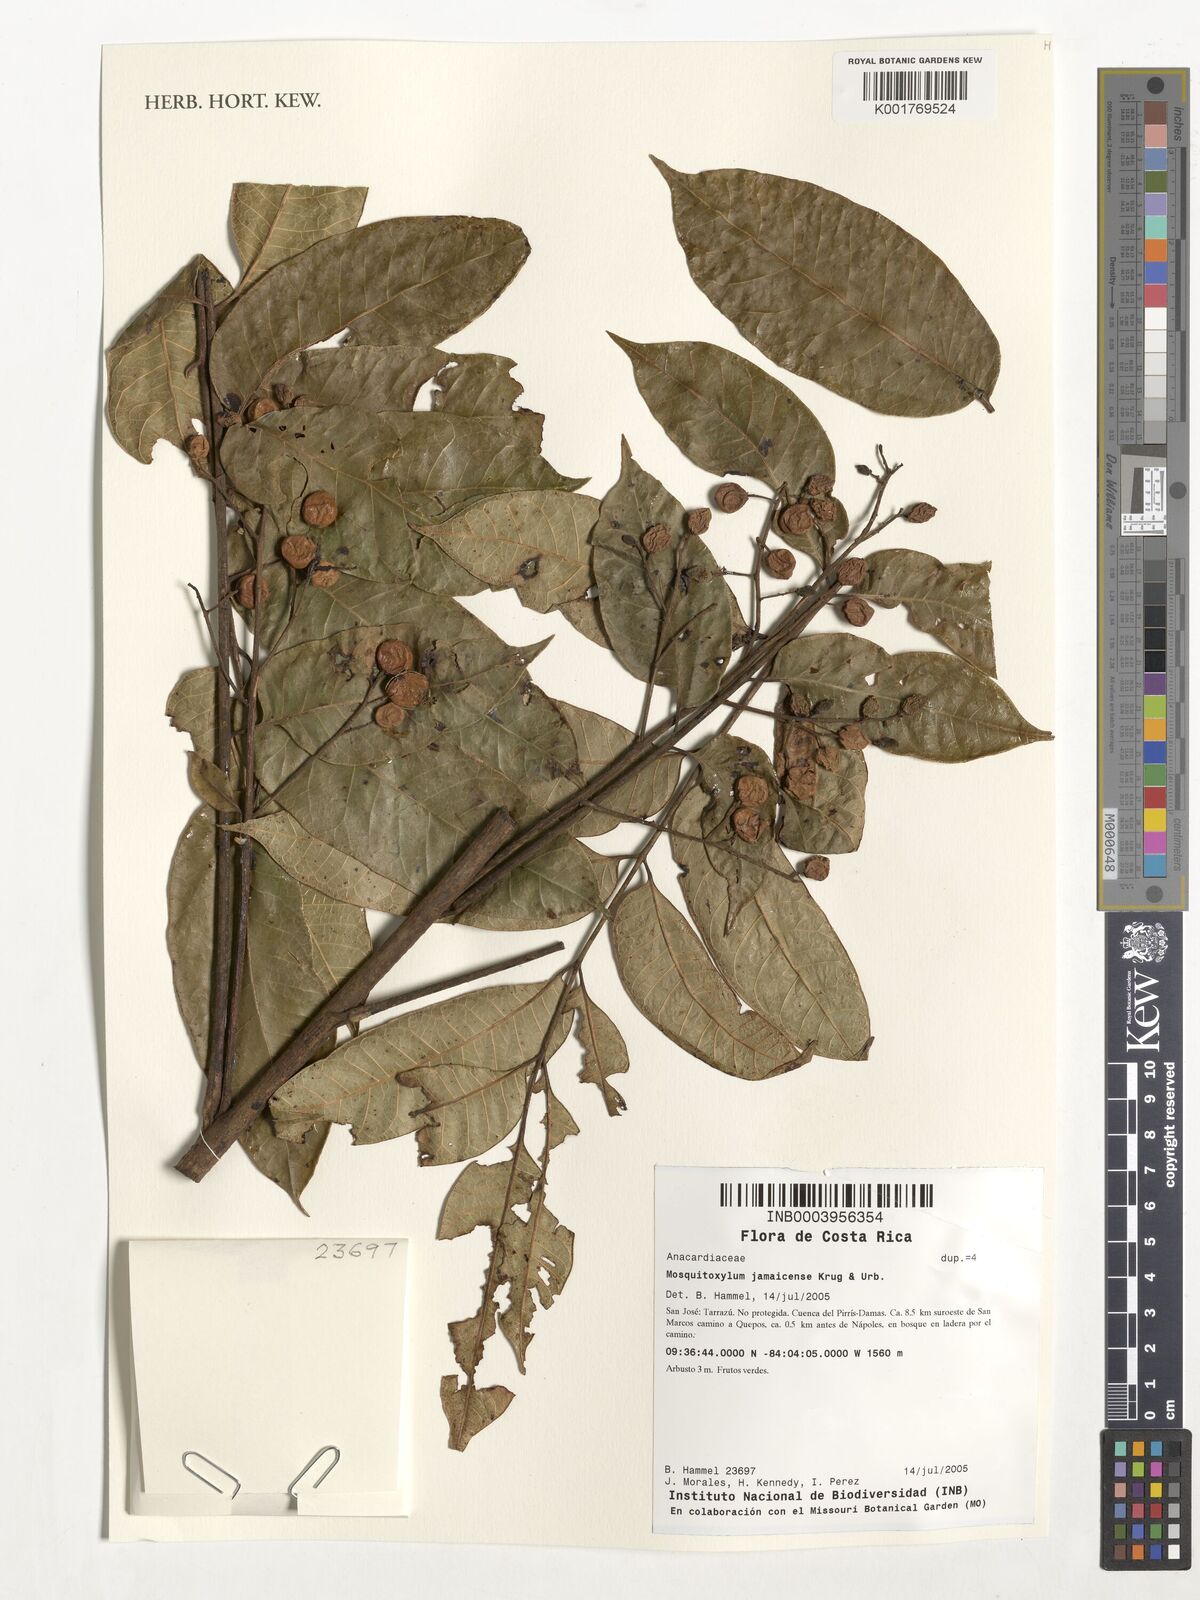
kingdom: Plantae
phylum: Tracheophyta
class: Magnoliopsida
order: Sapindales
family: Anacardiaceae
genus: Mosquitoxylum
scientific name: Mosquitoxylum jamaicense
